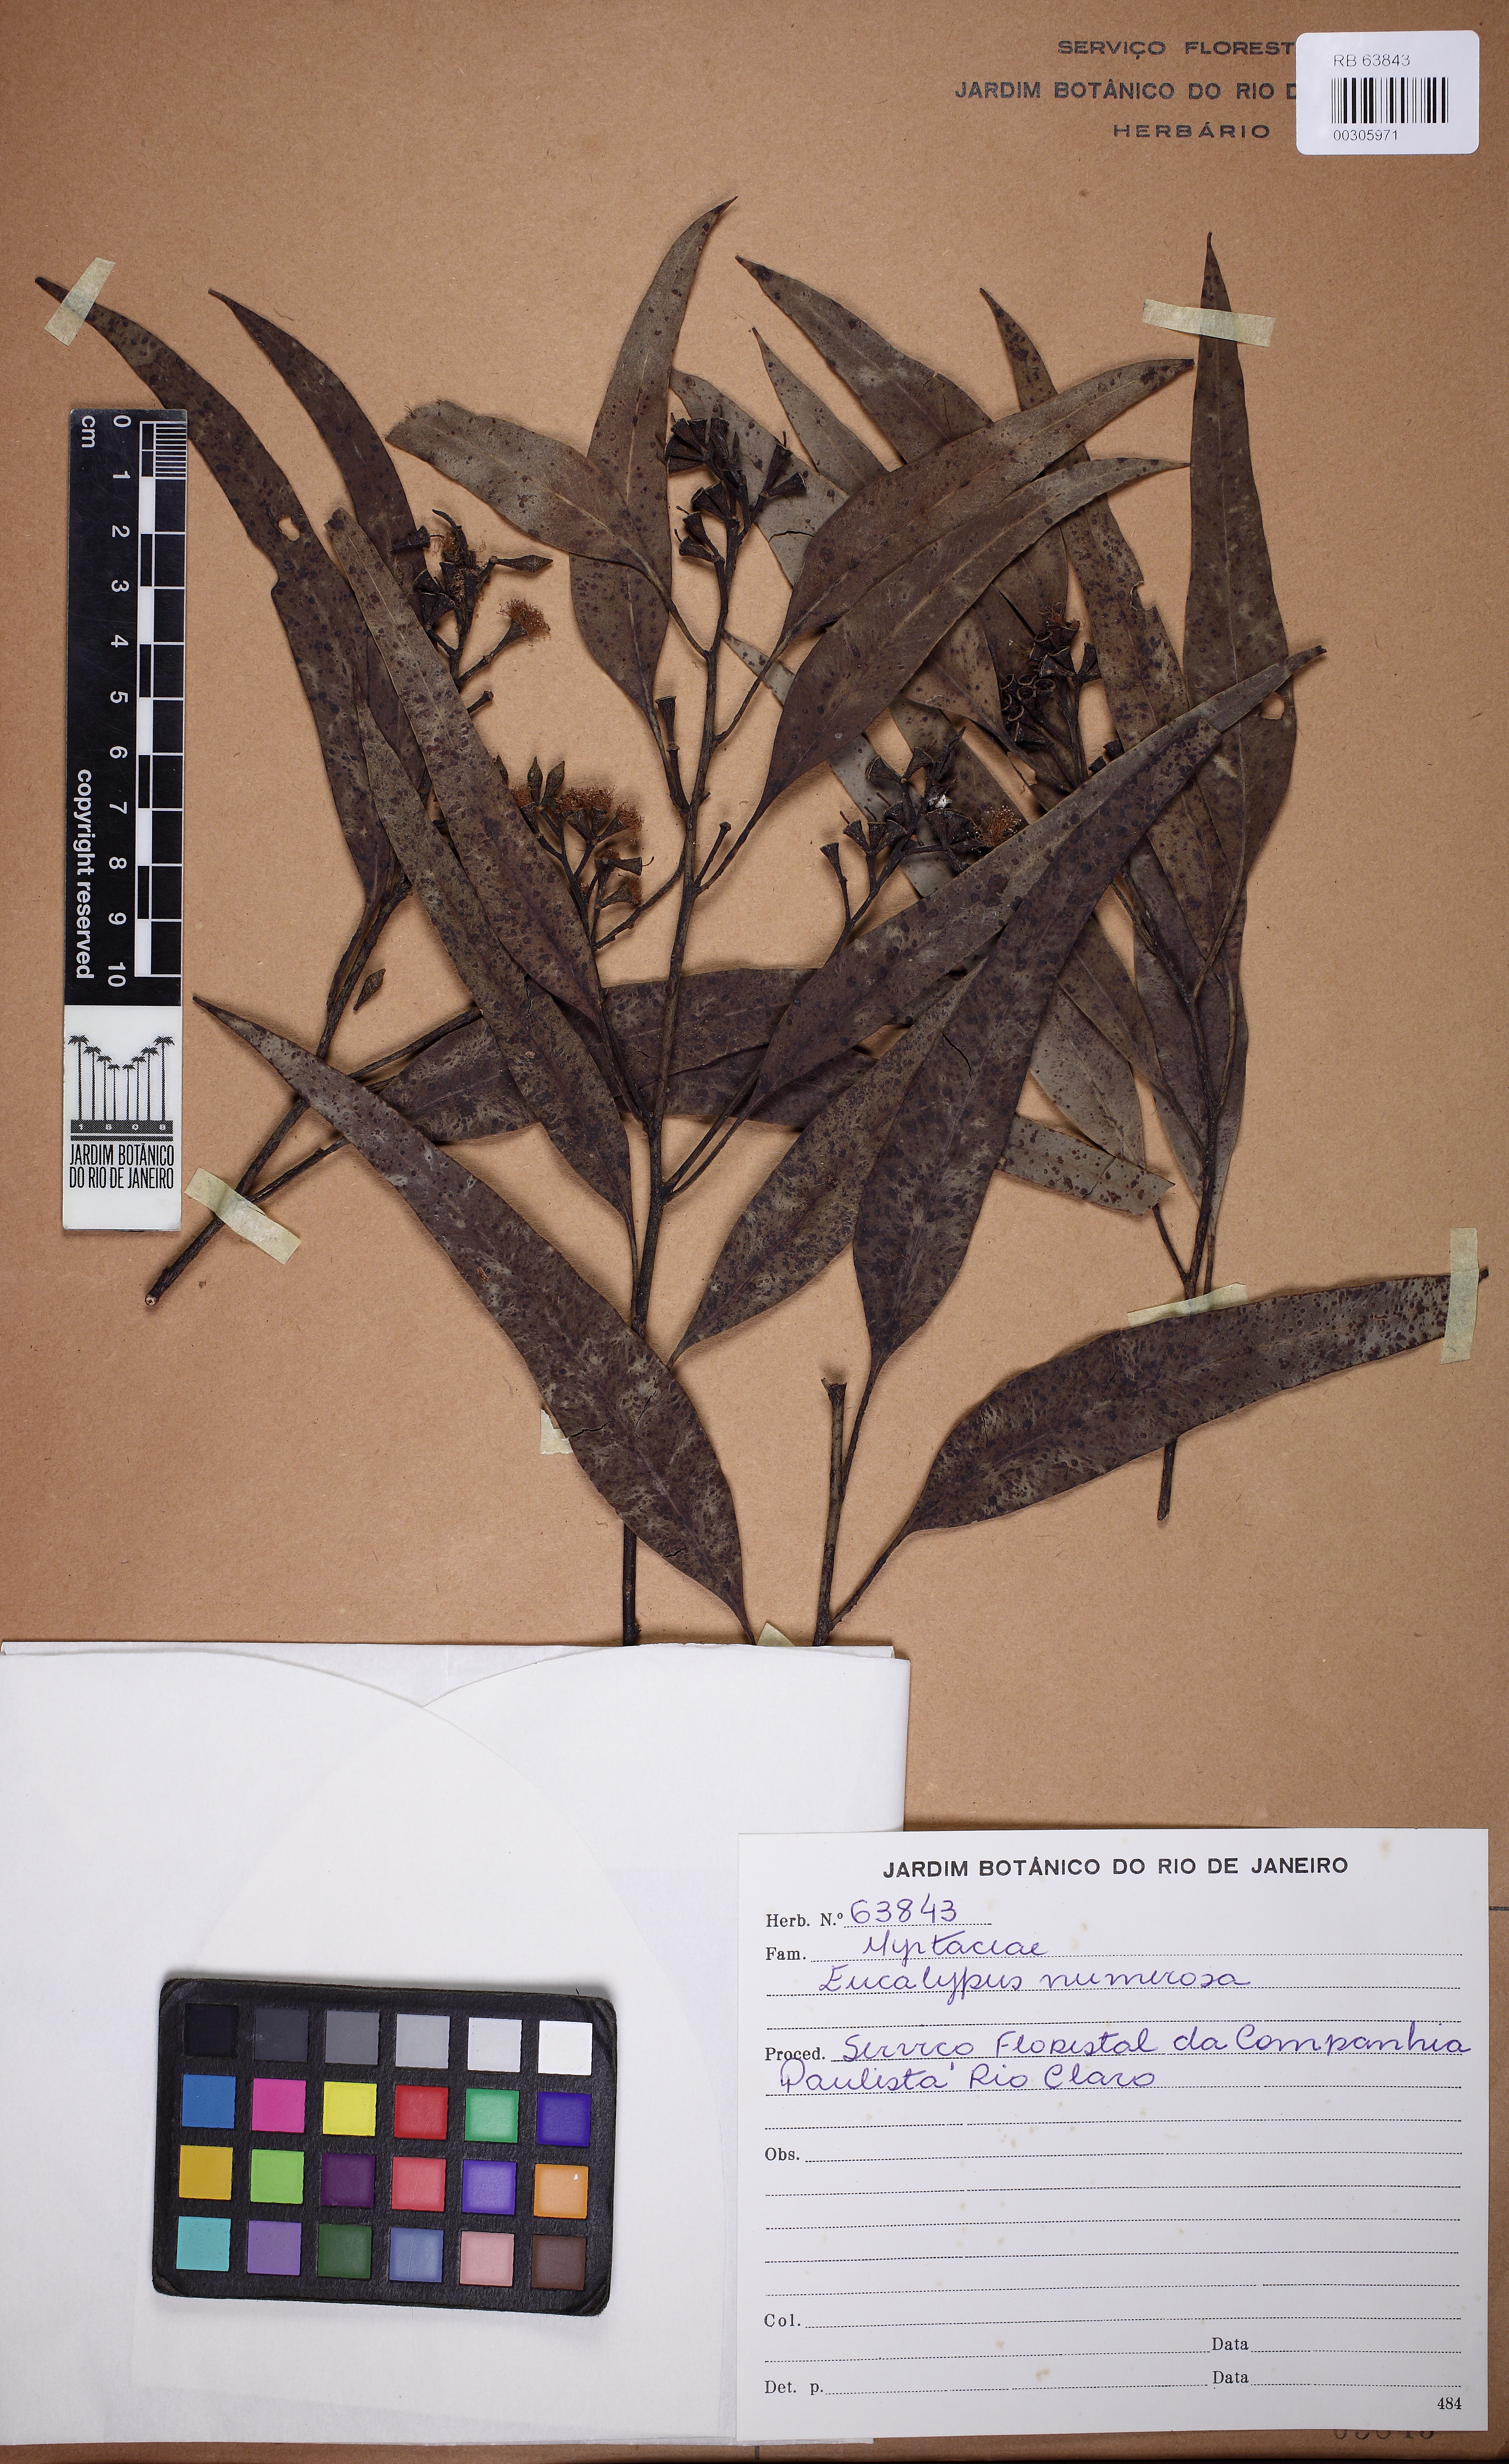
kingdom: Plantae
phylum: Tracheophyta
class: Magnoliopsida
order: Myrtales
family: Myrtaceae
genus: Eucalyptus
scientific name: Eucalyptus amygdalina
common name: Black peppermint
